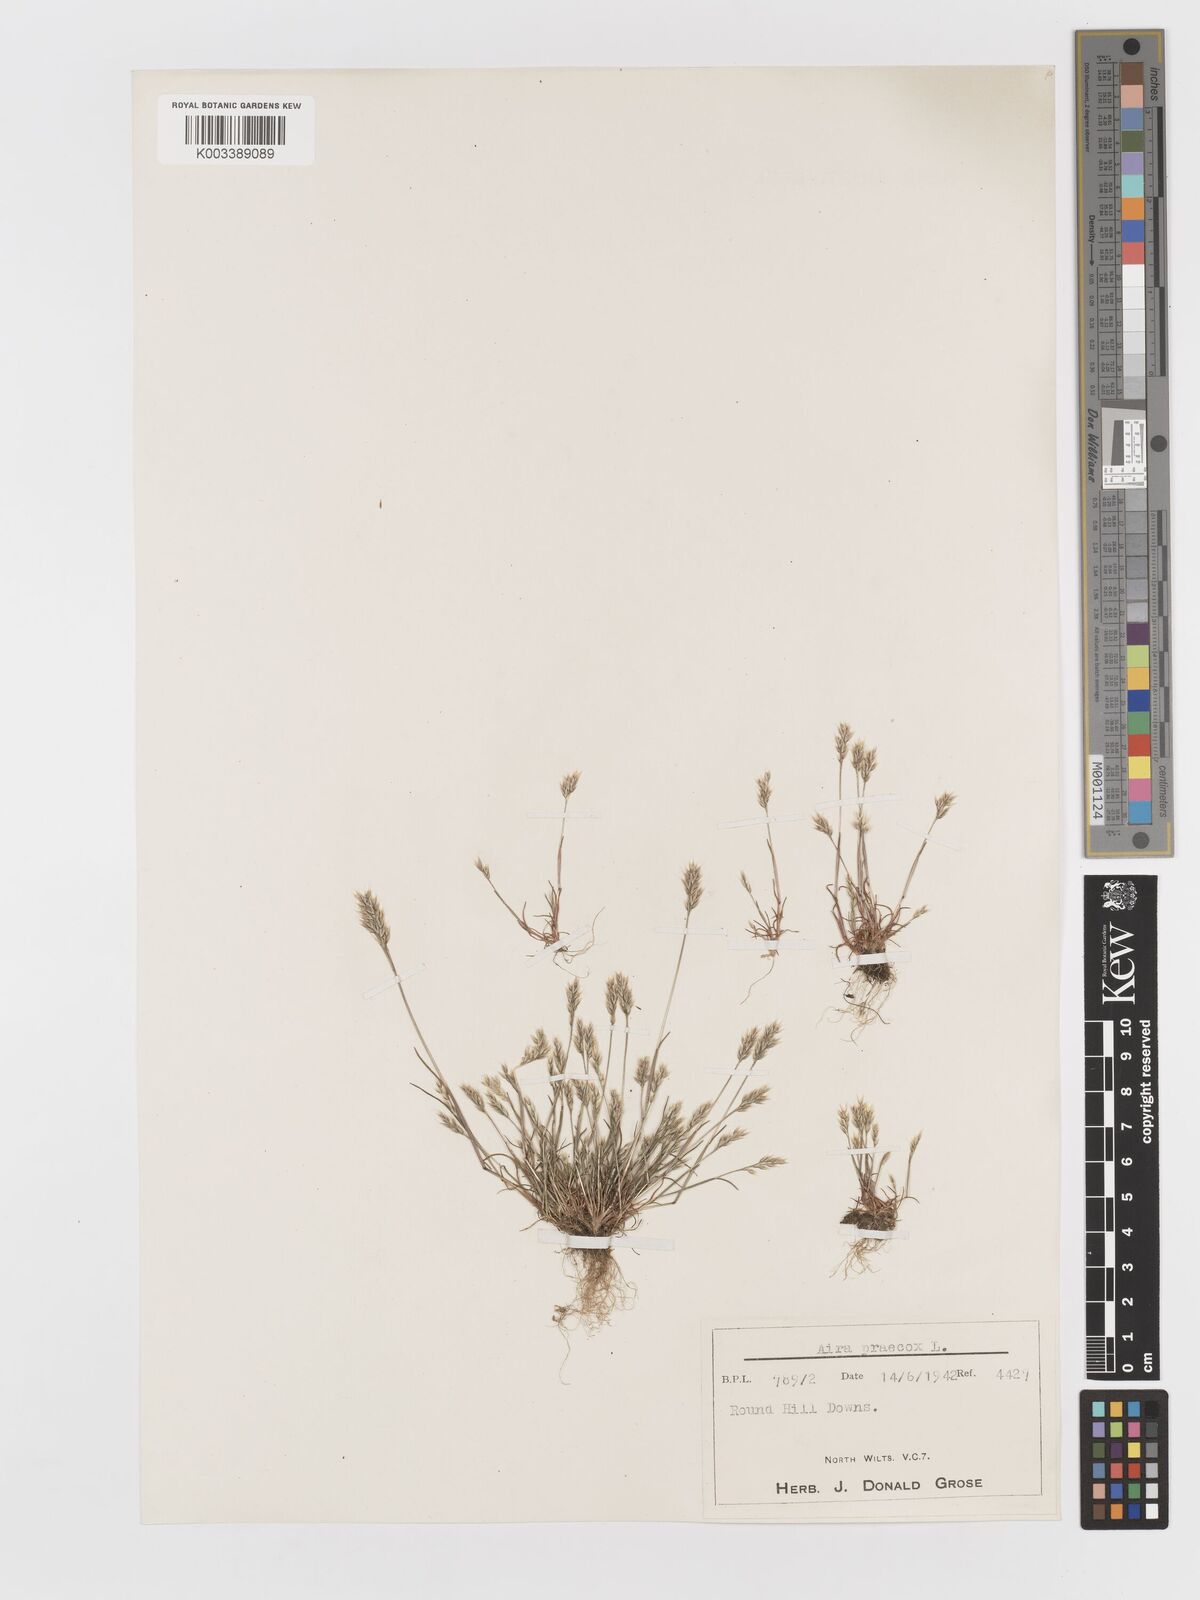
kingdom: Plantae
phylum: Tracheophyta
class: Liliopsida
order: Poales
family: Poaceae
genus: Aira
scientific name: Aira praecox
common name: Early hair-grass
